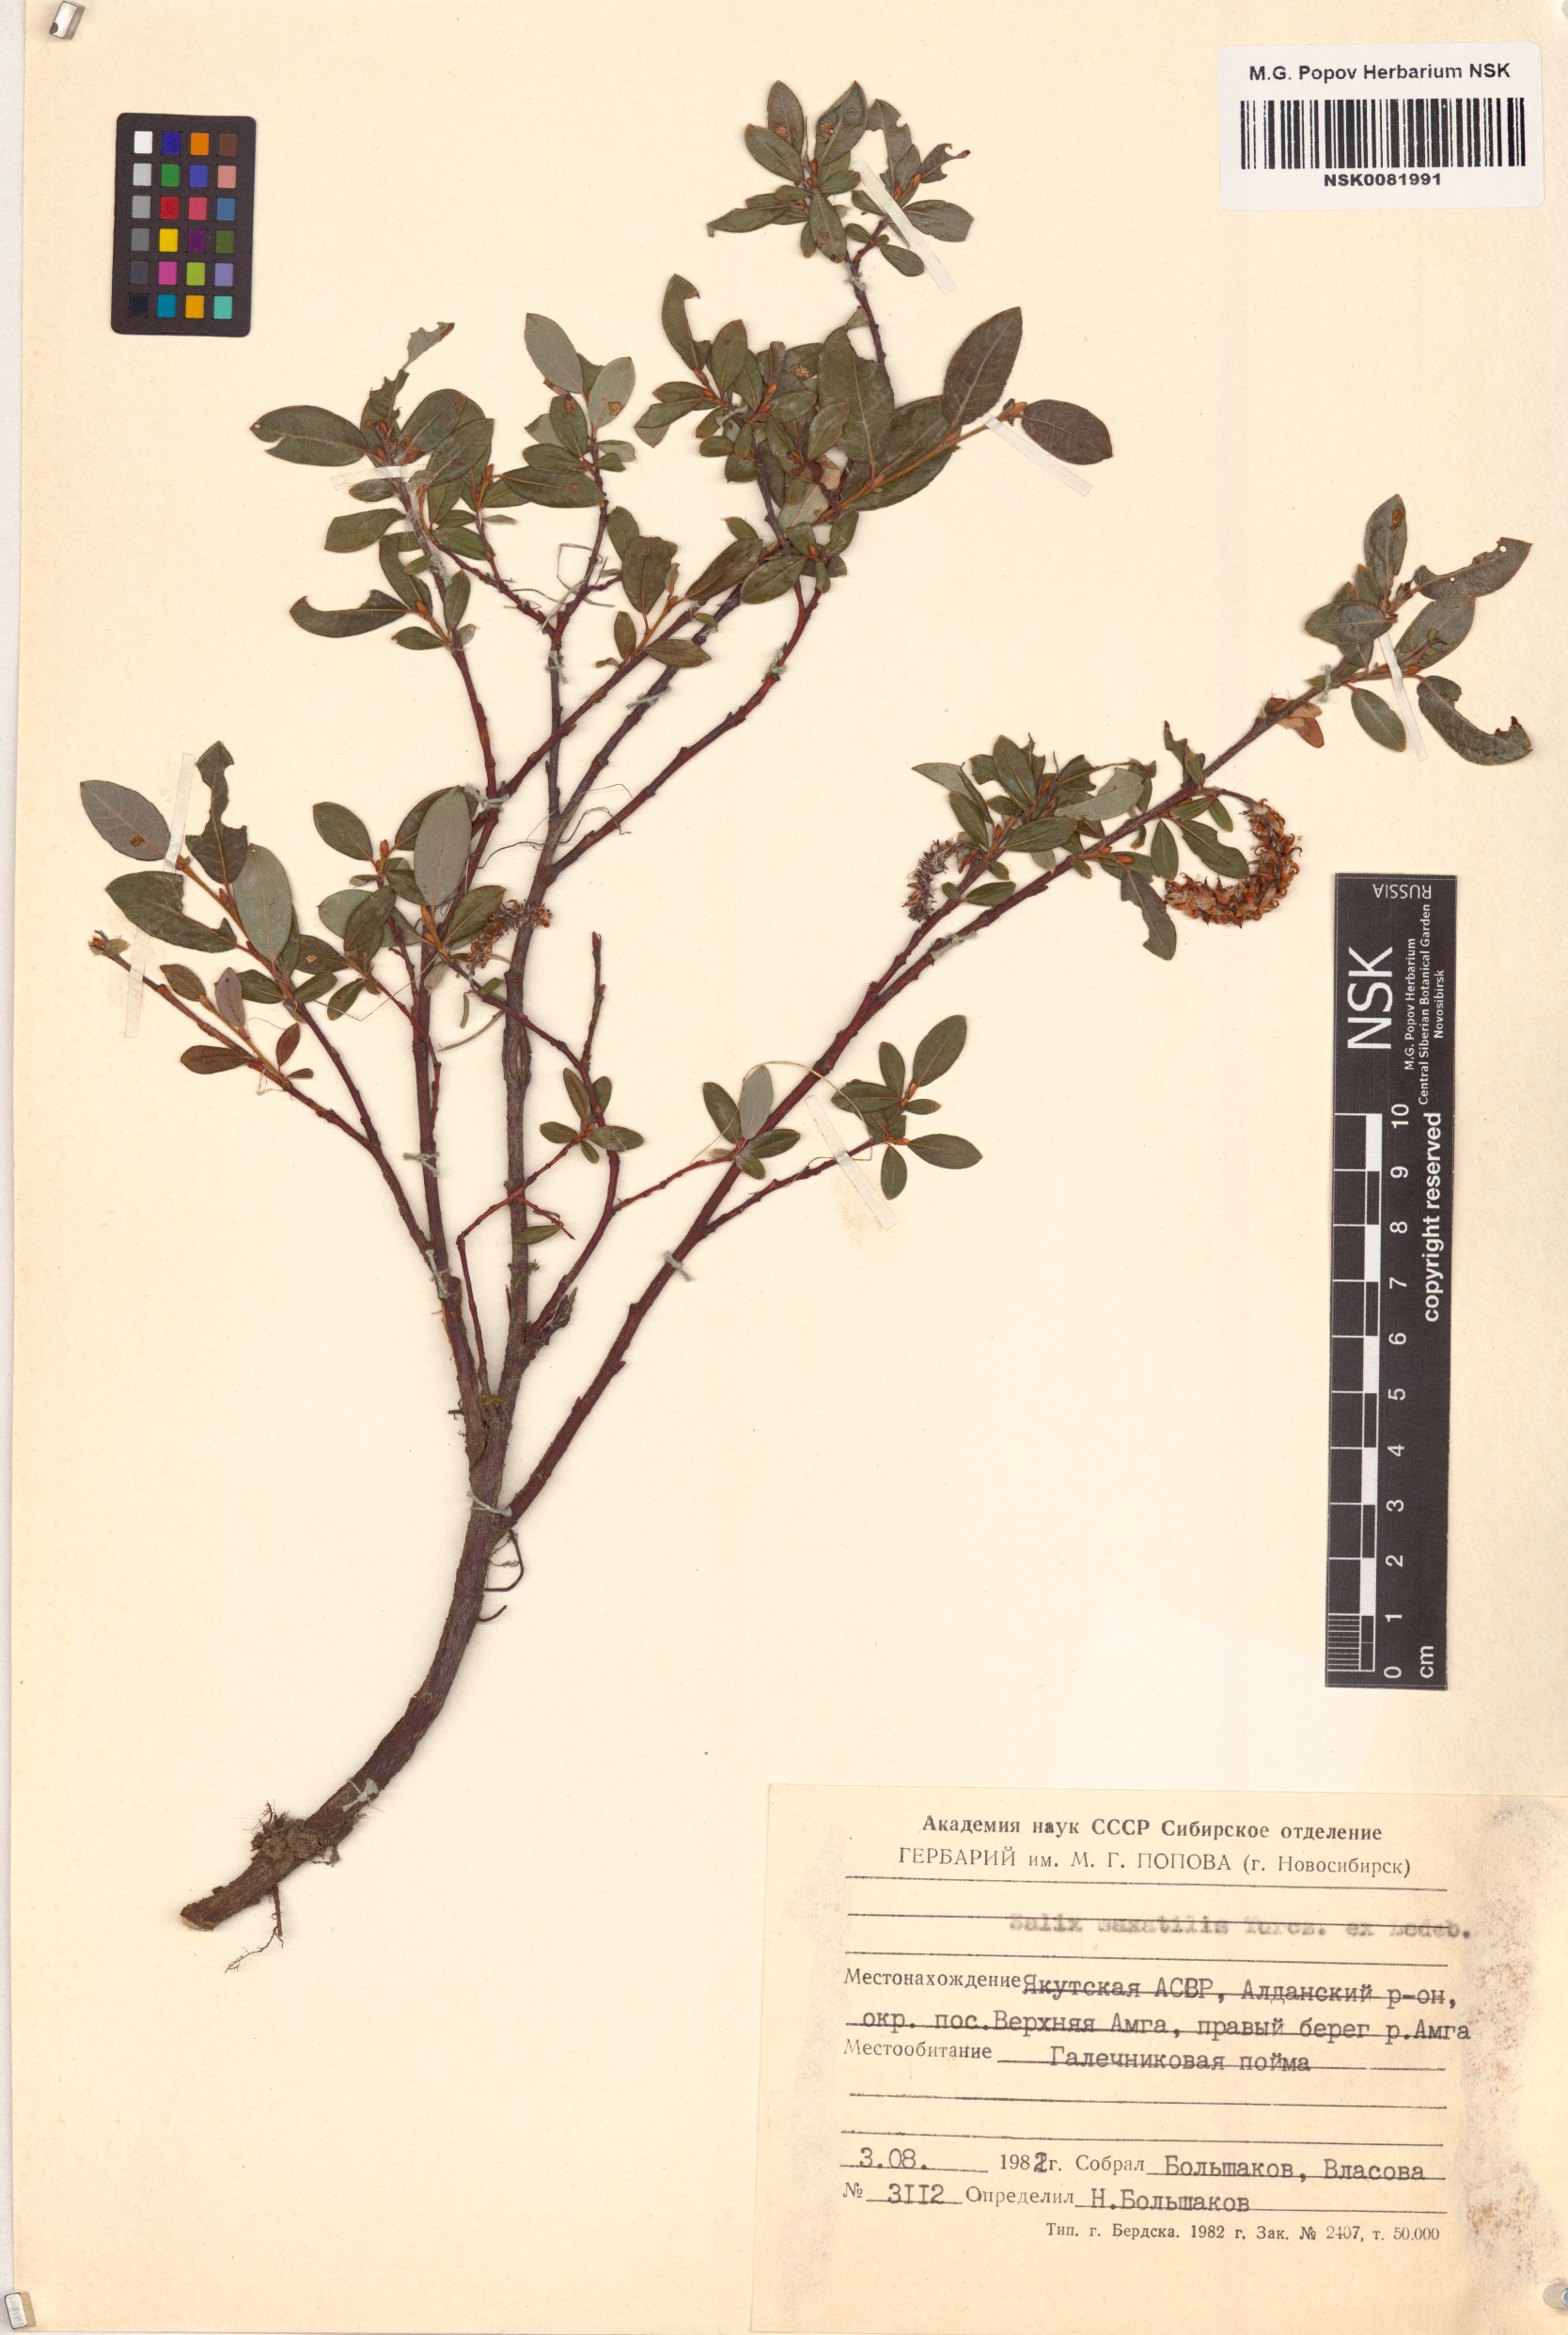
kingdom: Plantae
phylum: Tracheophyta
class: Magnoliopsida
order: Malpighiales
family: Salicaceae
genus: Salix
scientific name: Salix saxatilis
